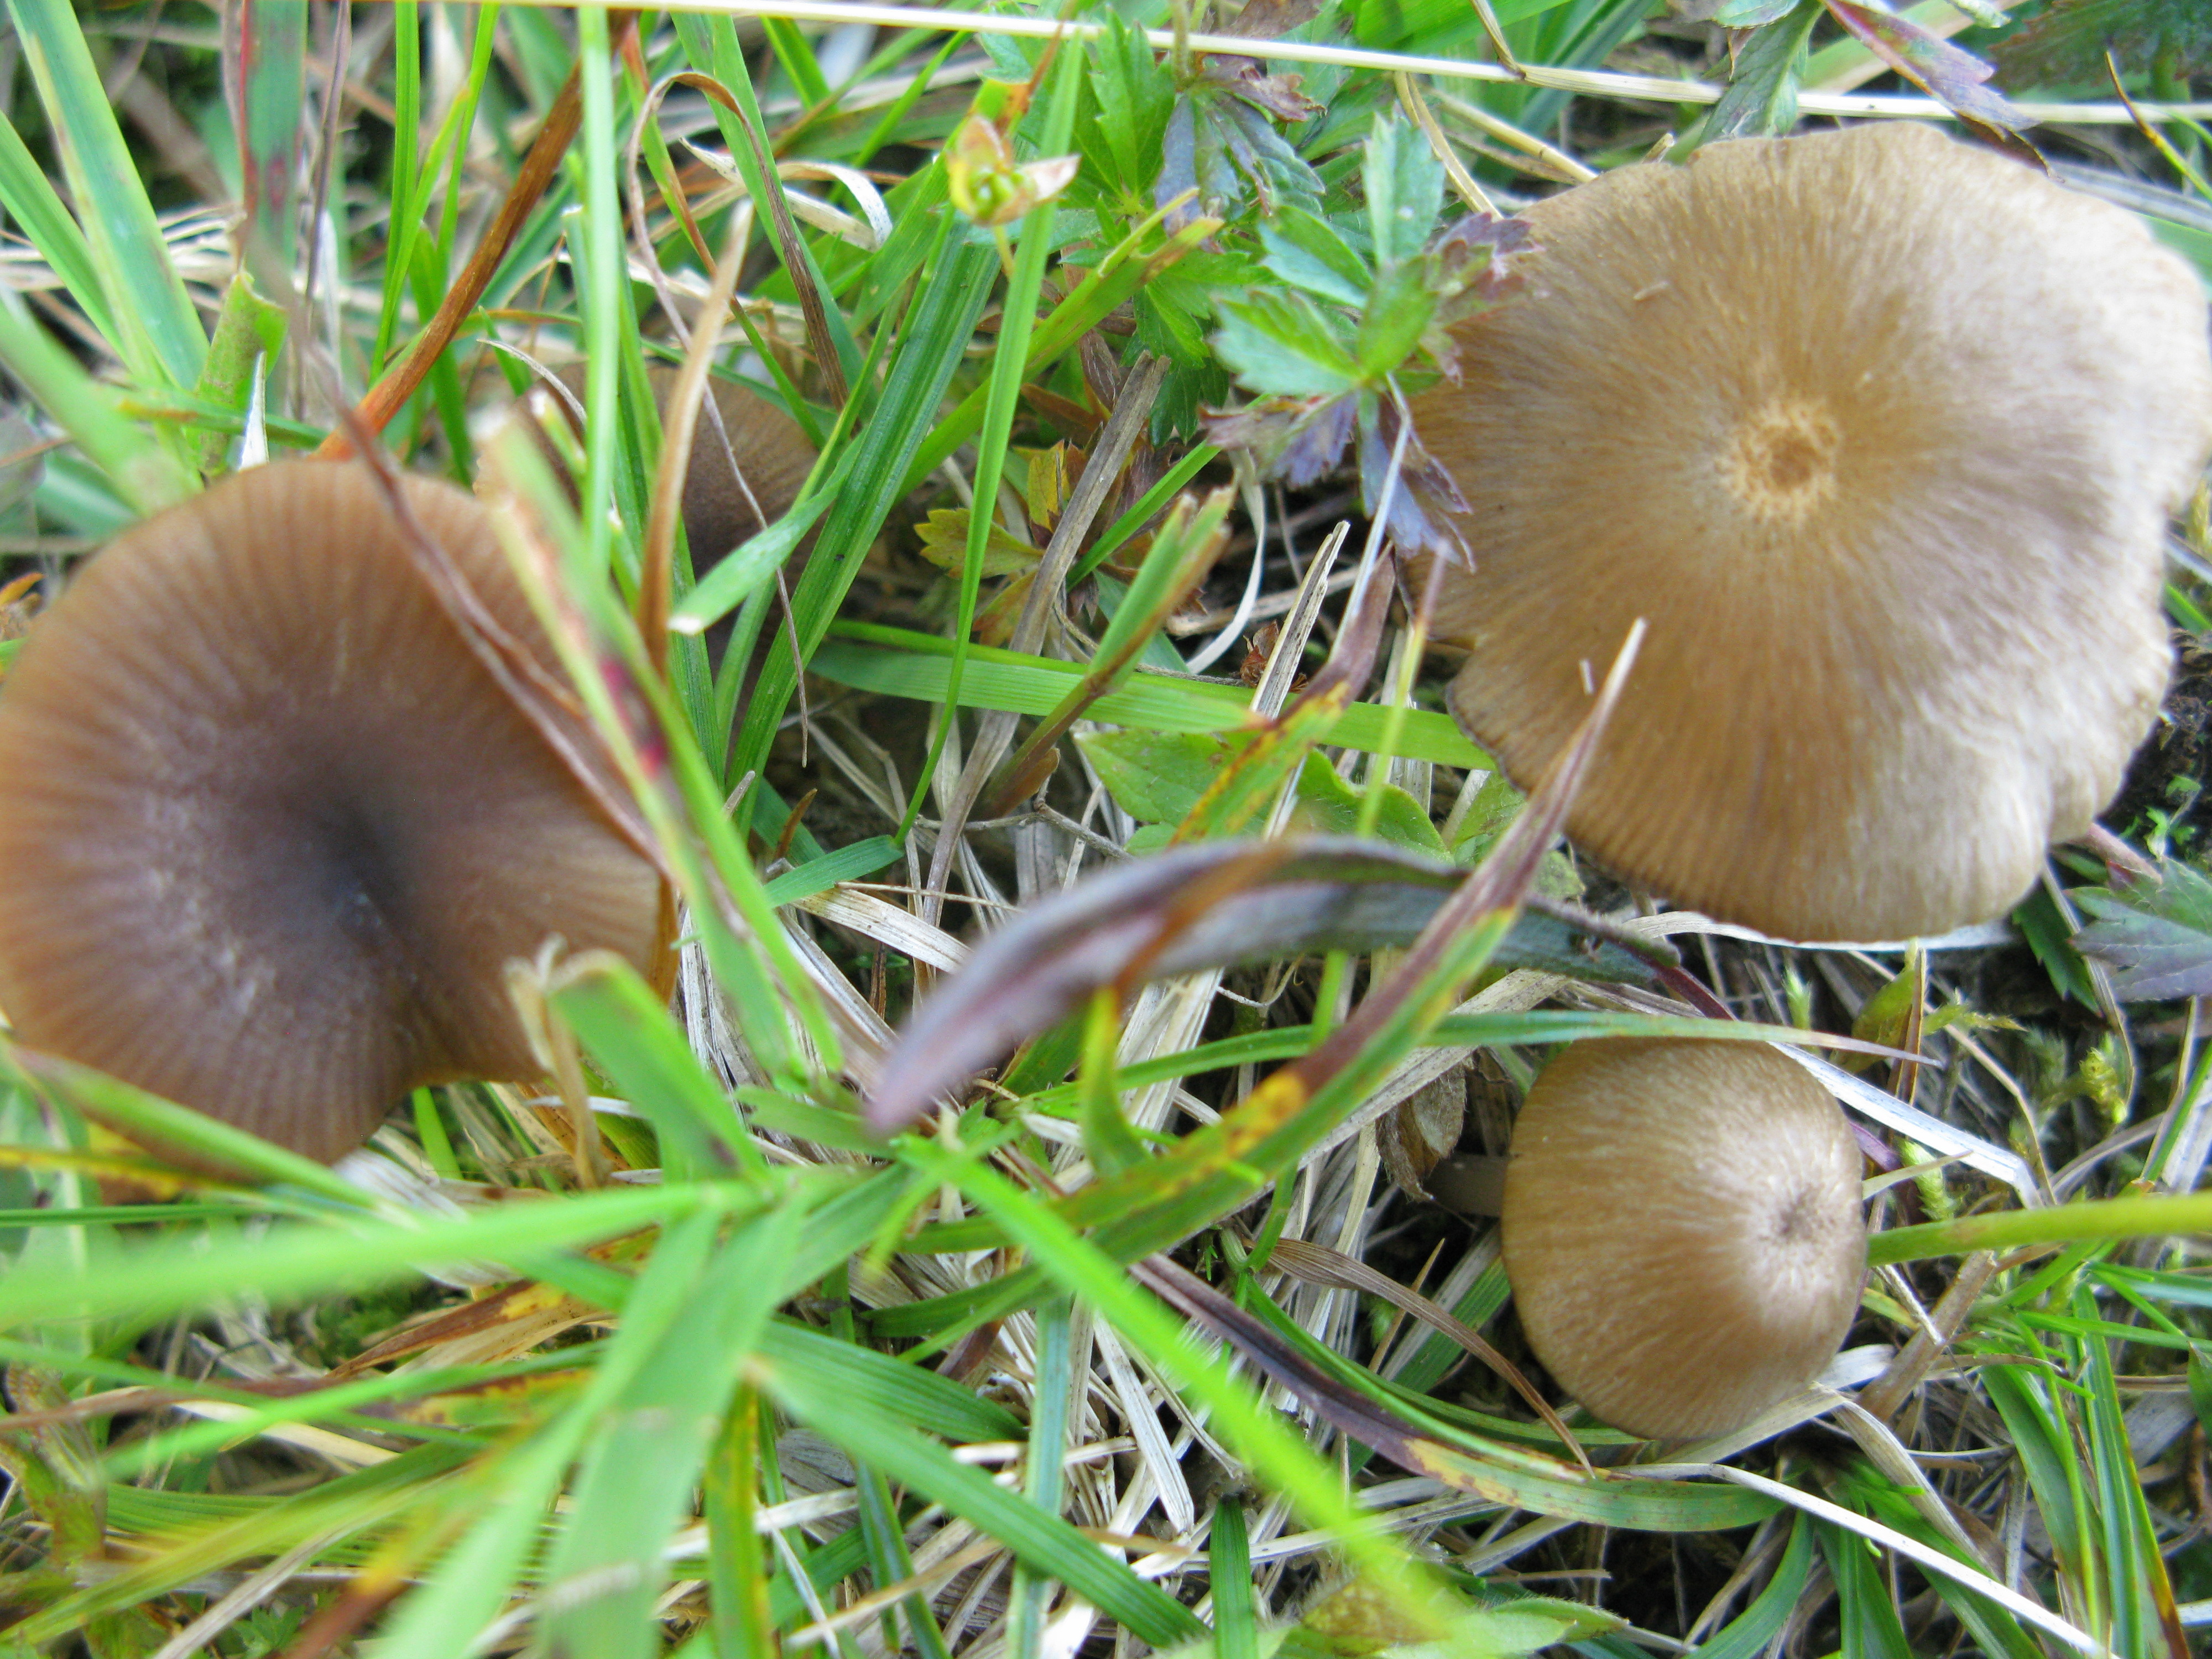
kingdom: Fungi
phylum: Basidiomycota
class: Agaricomycetes
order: Agaricales
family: Entolomataceae
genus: Entoloma
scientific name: Entoloma ochromicaceum
